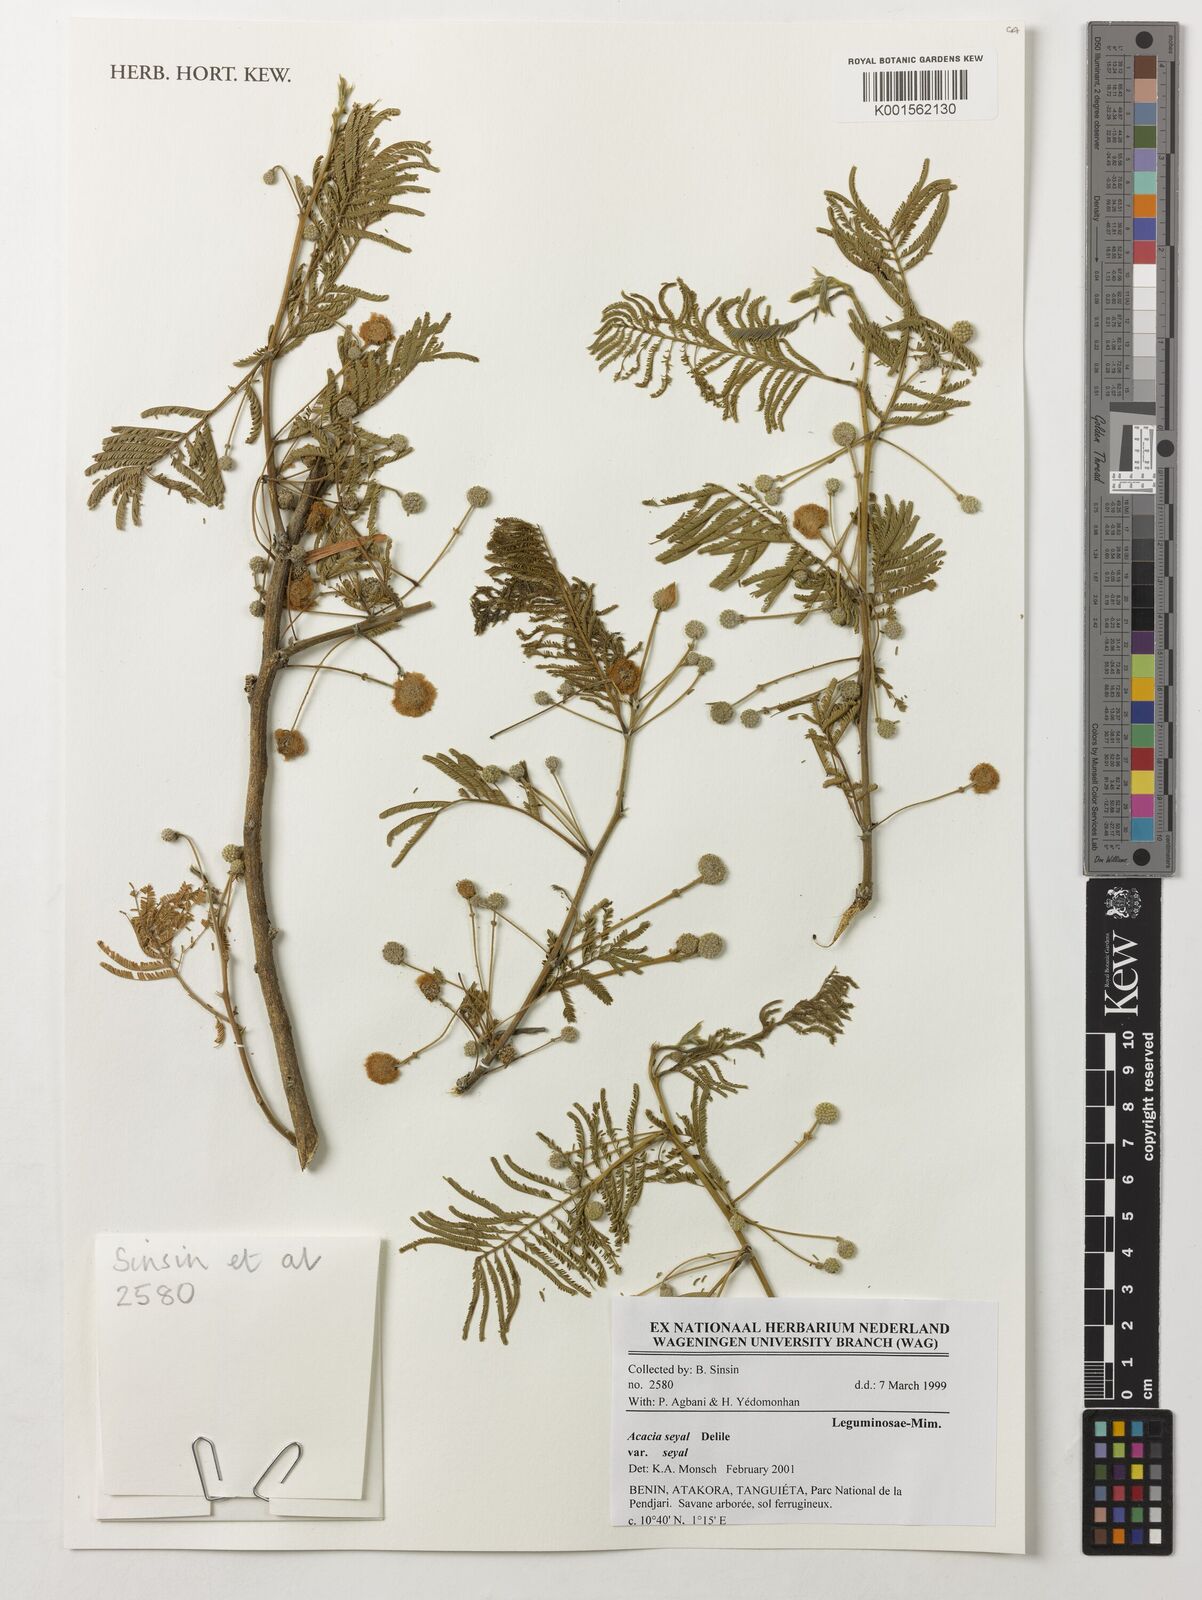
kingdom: Plantae
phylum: Tracheophyta
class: Magnoliopsida
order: Fabales
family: Fabaceae
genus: Vachellia
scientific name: Vachellia seyal
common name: Thirtythorn
